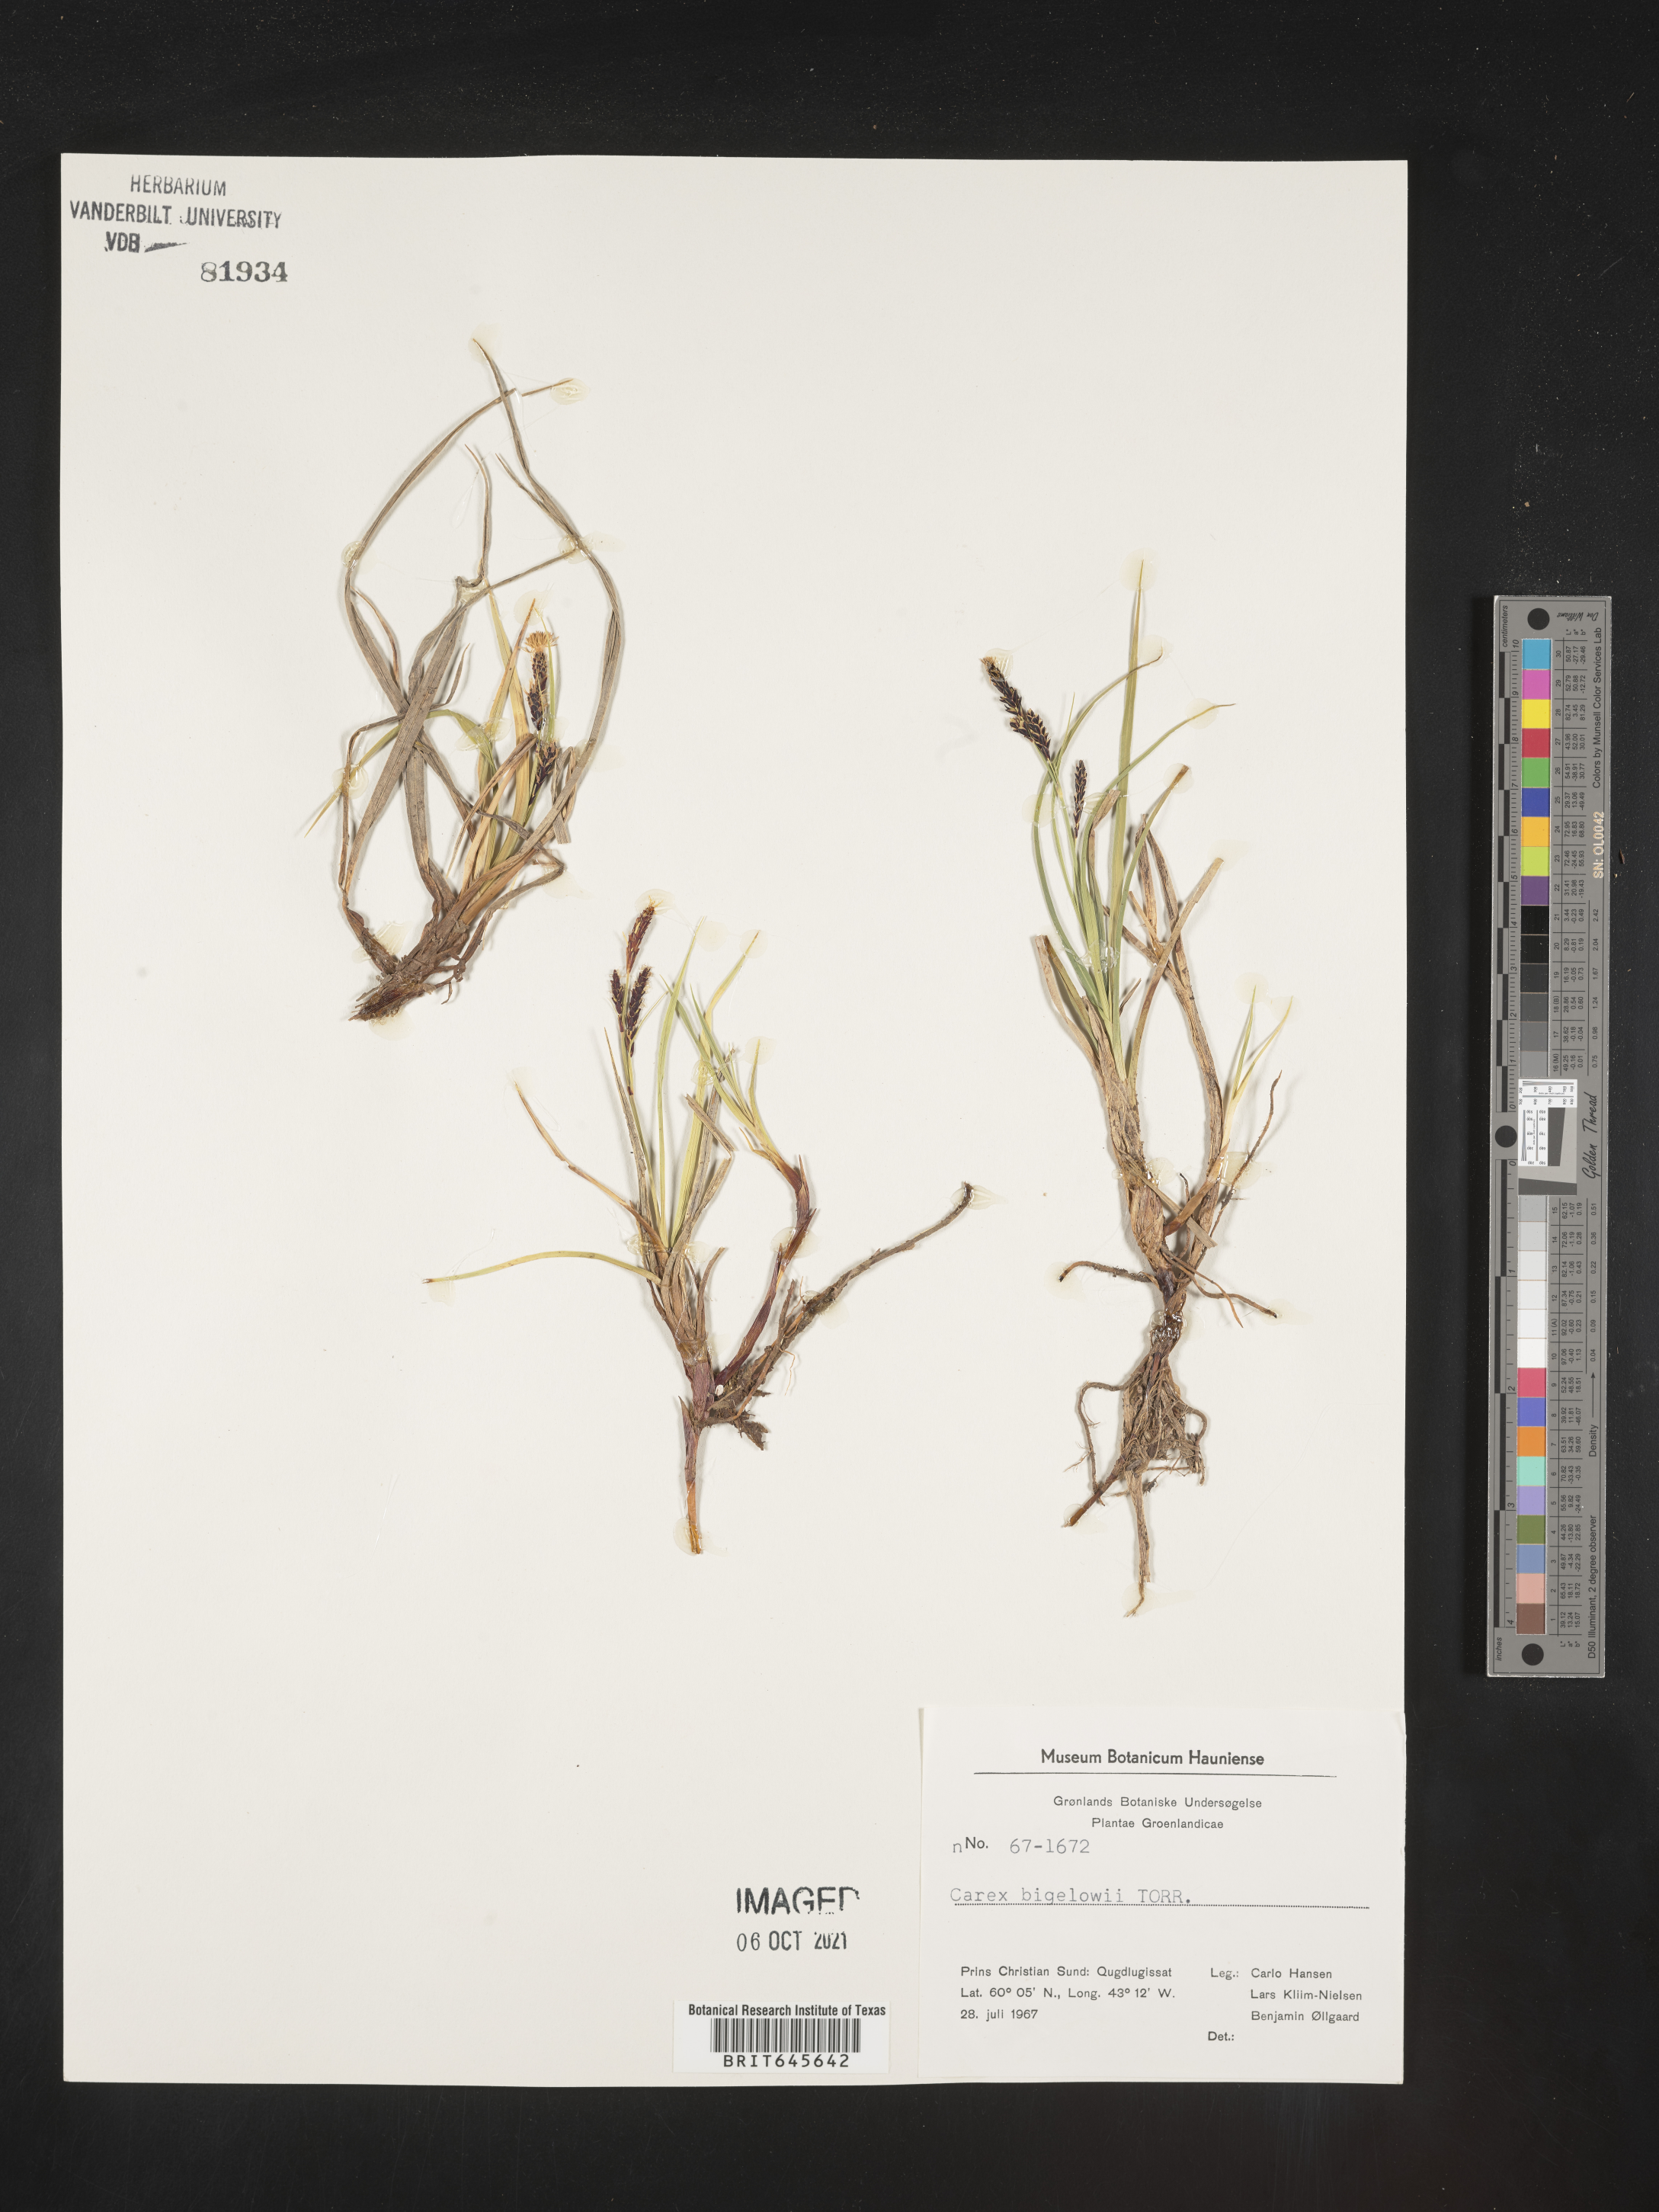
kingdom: Plantae
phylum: Tracheophyta
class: Liliopsida
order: Poales
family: Cyperaceae
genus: Carex
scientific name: Carex bigelowii
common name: Stiff sedge
